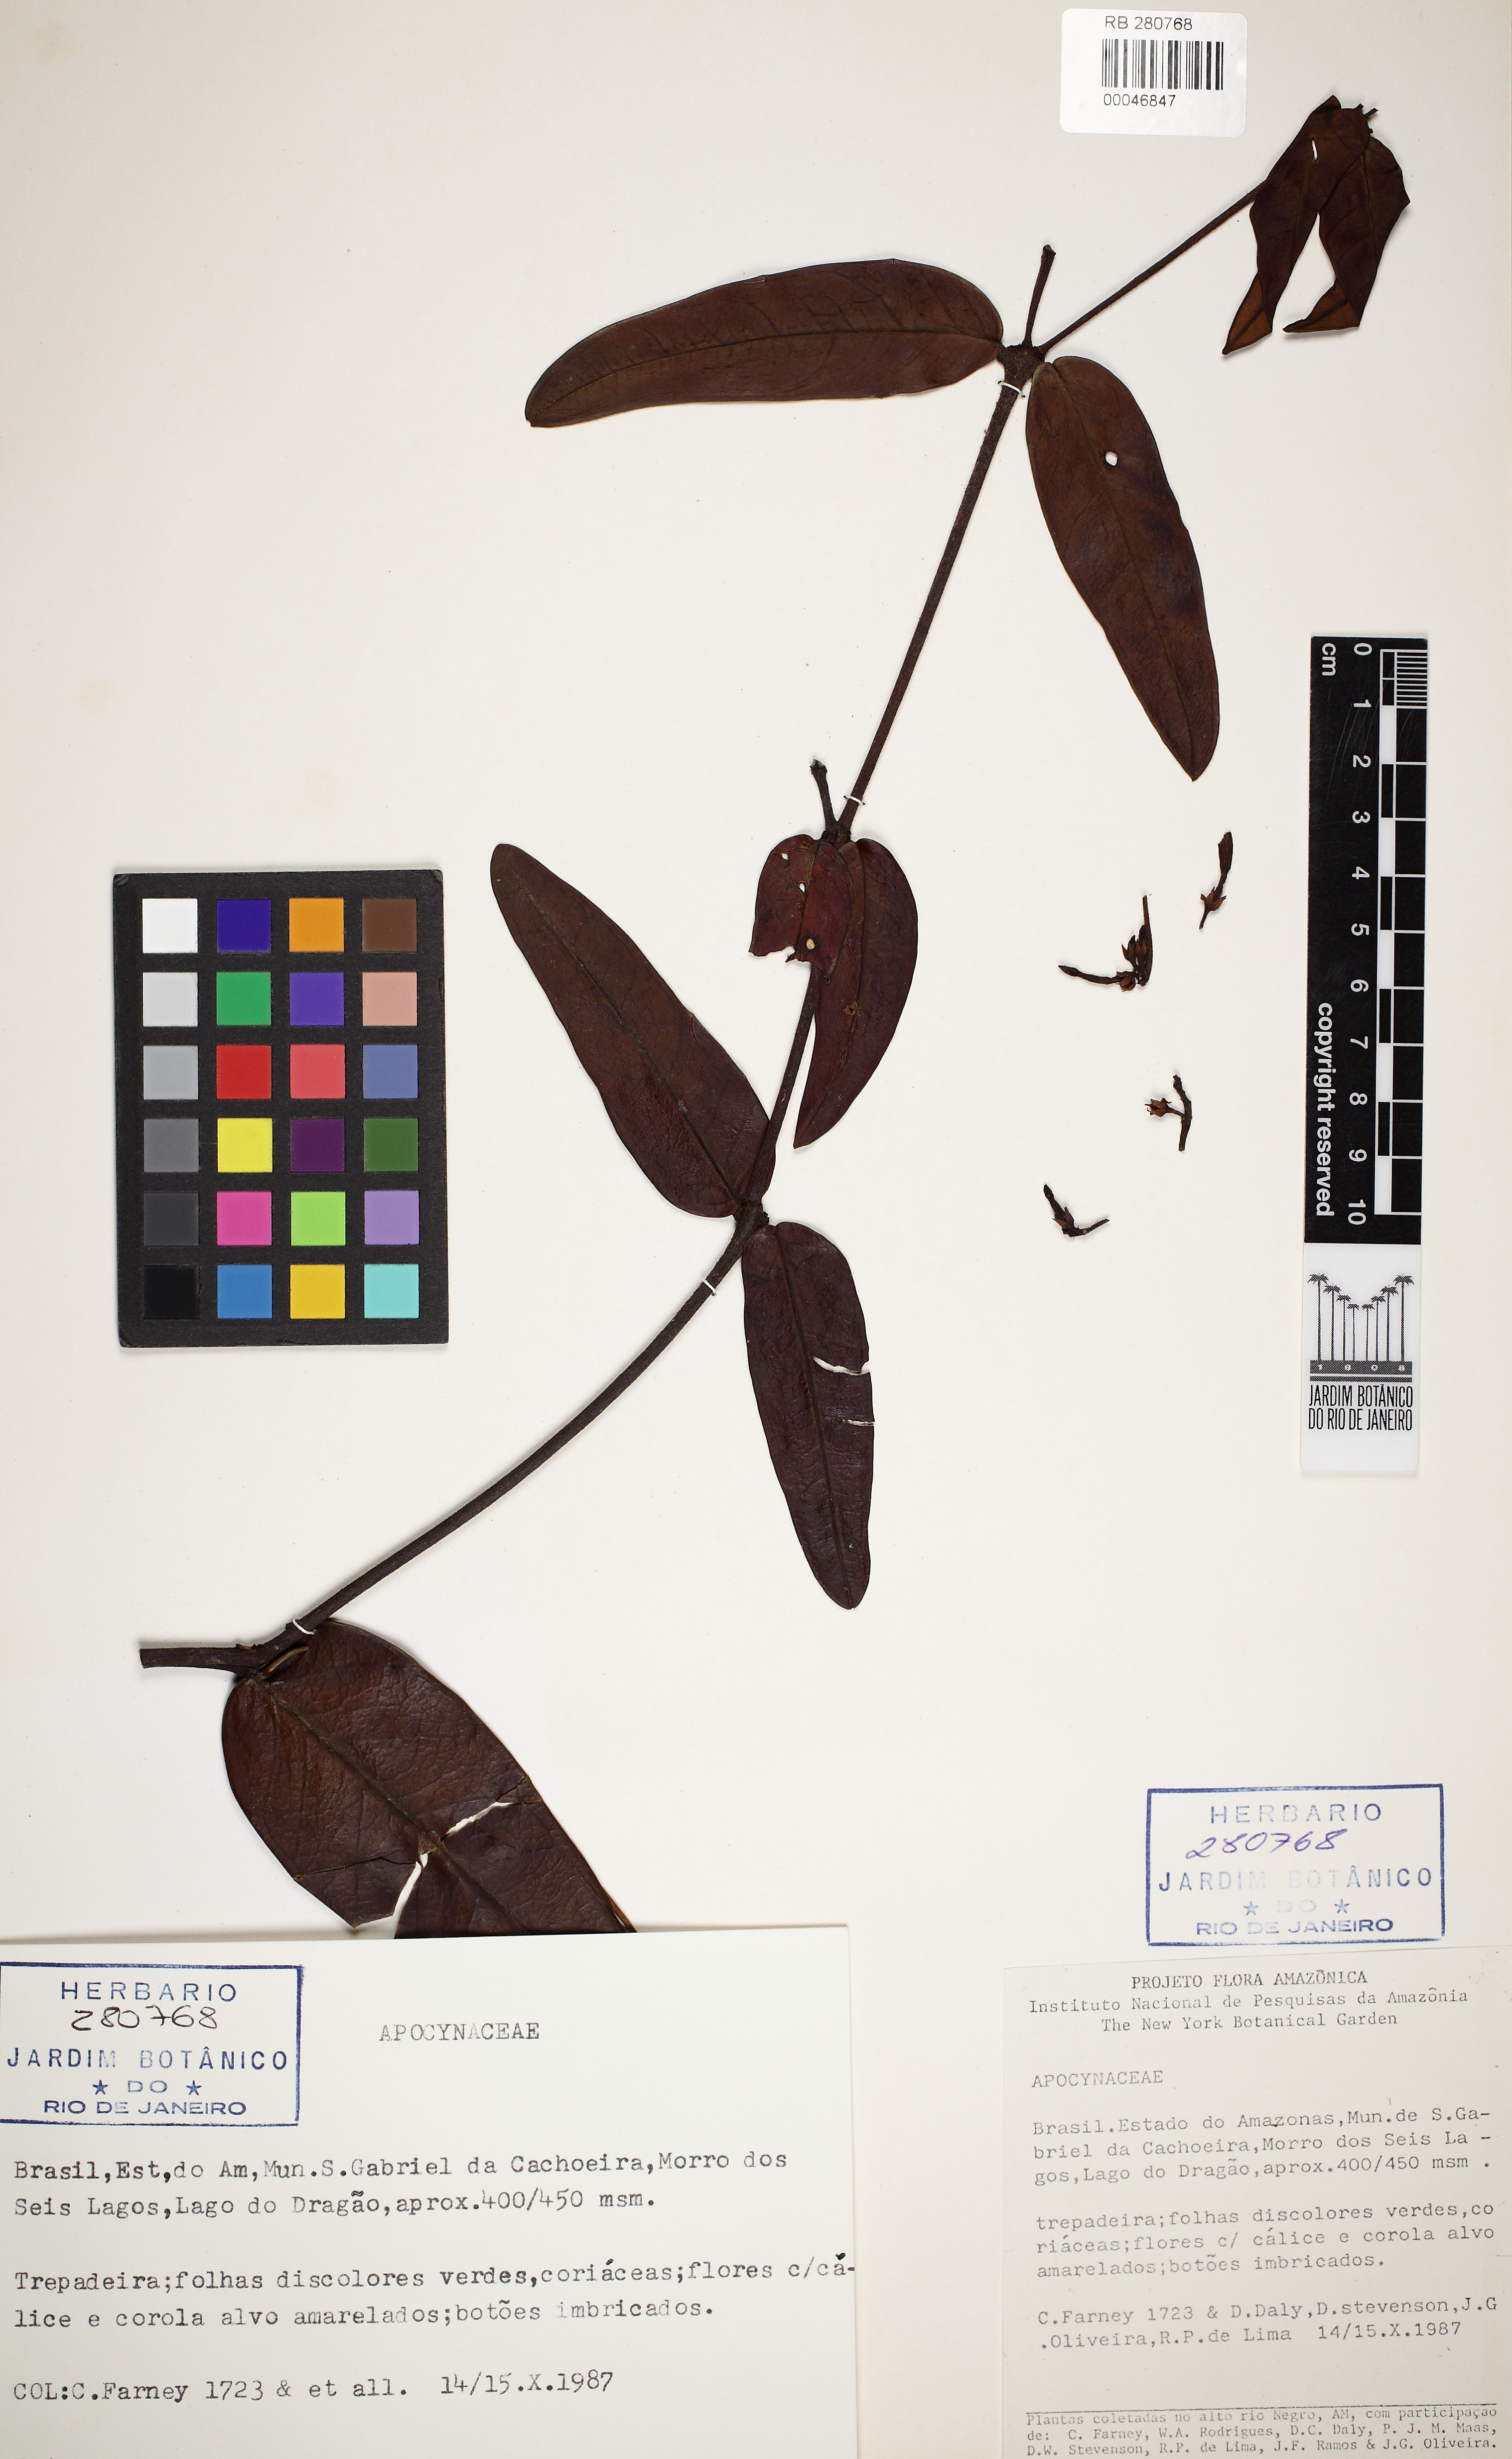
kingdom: Plantae
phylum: Tracheophyta
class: Magnoliopsida
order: Gentianales
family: Apocynaceae
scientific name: Apocynaceae
